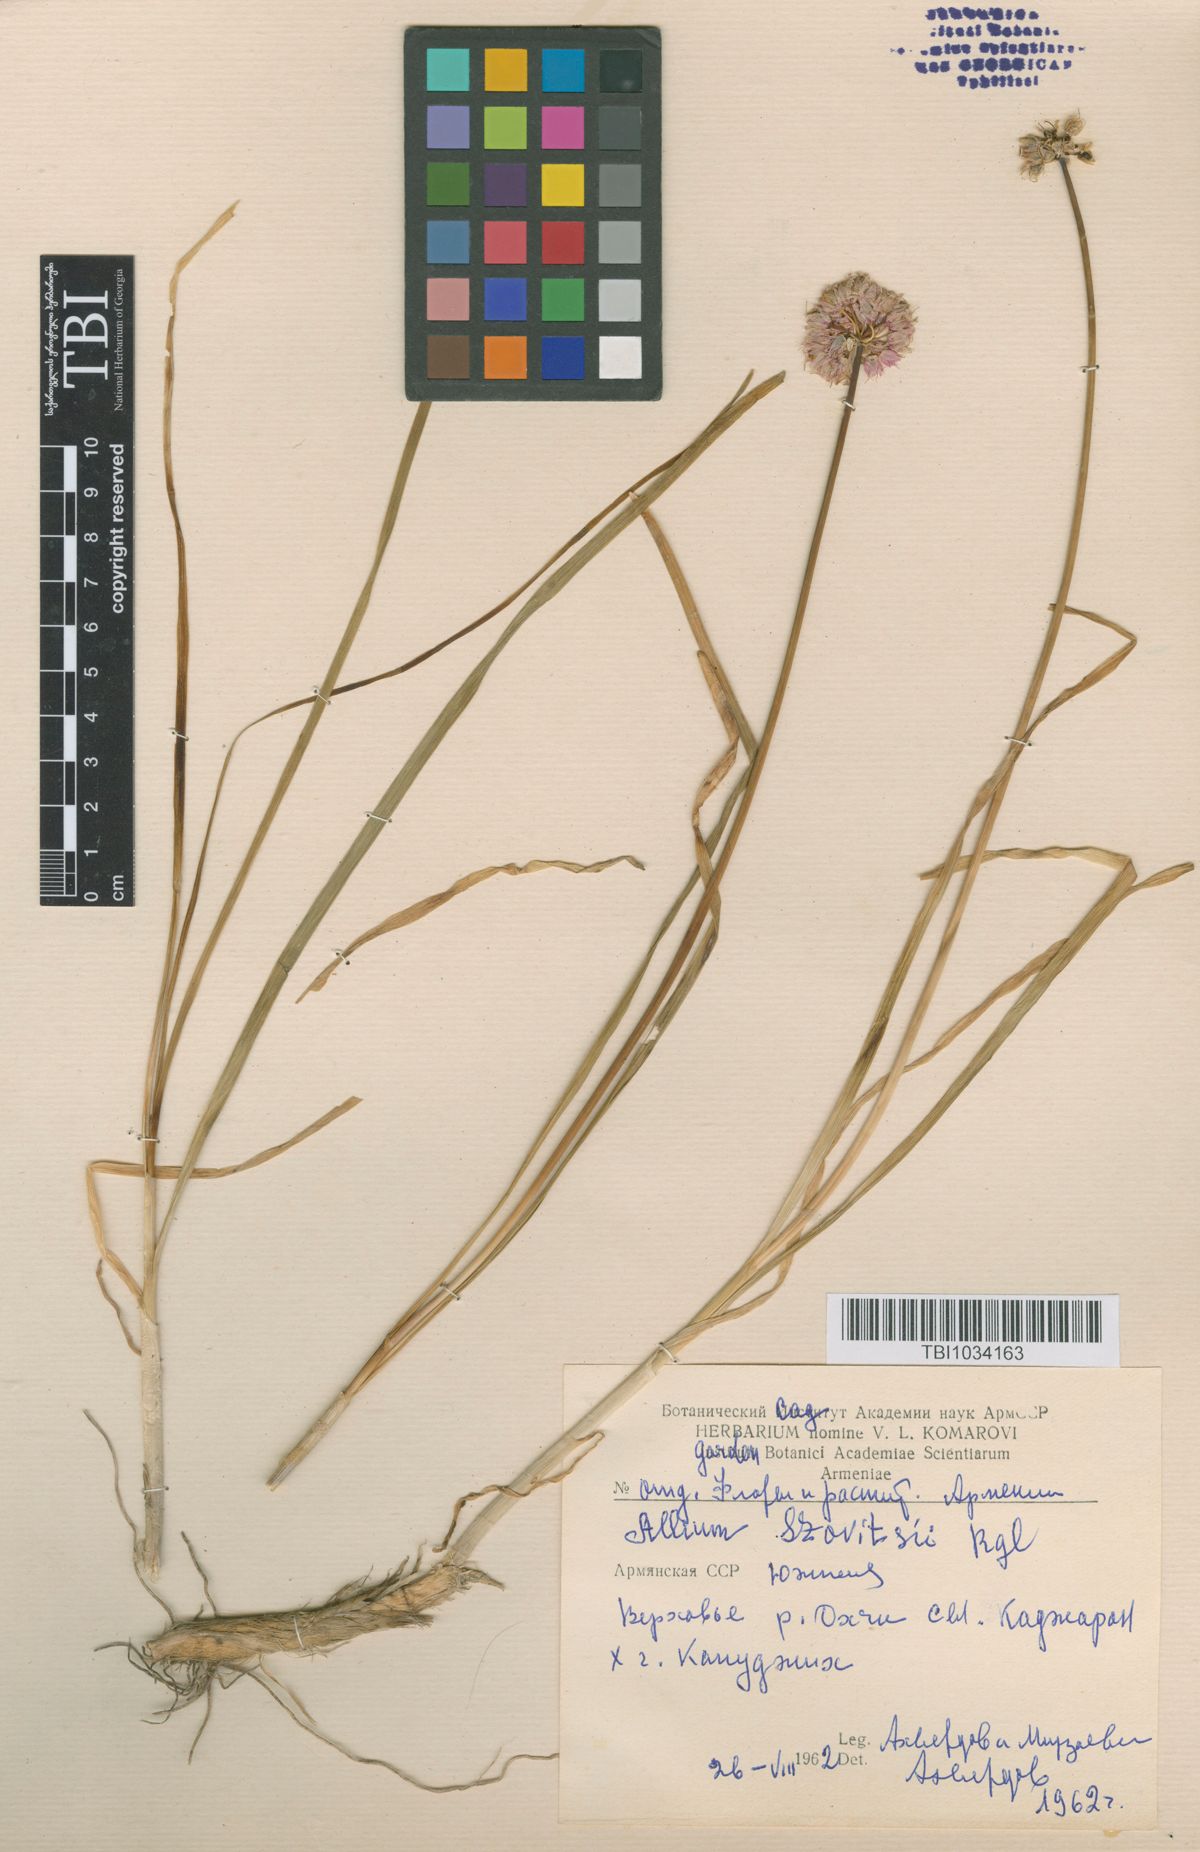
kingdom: Plantae
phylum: Tracheophyta
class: Liliopsida
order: Asparagales
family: Amaryllidaceae
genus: Allium
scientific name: Allium szovitsii
